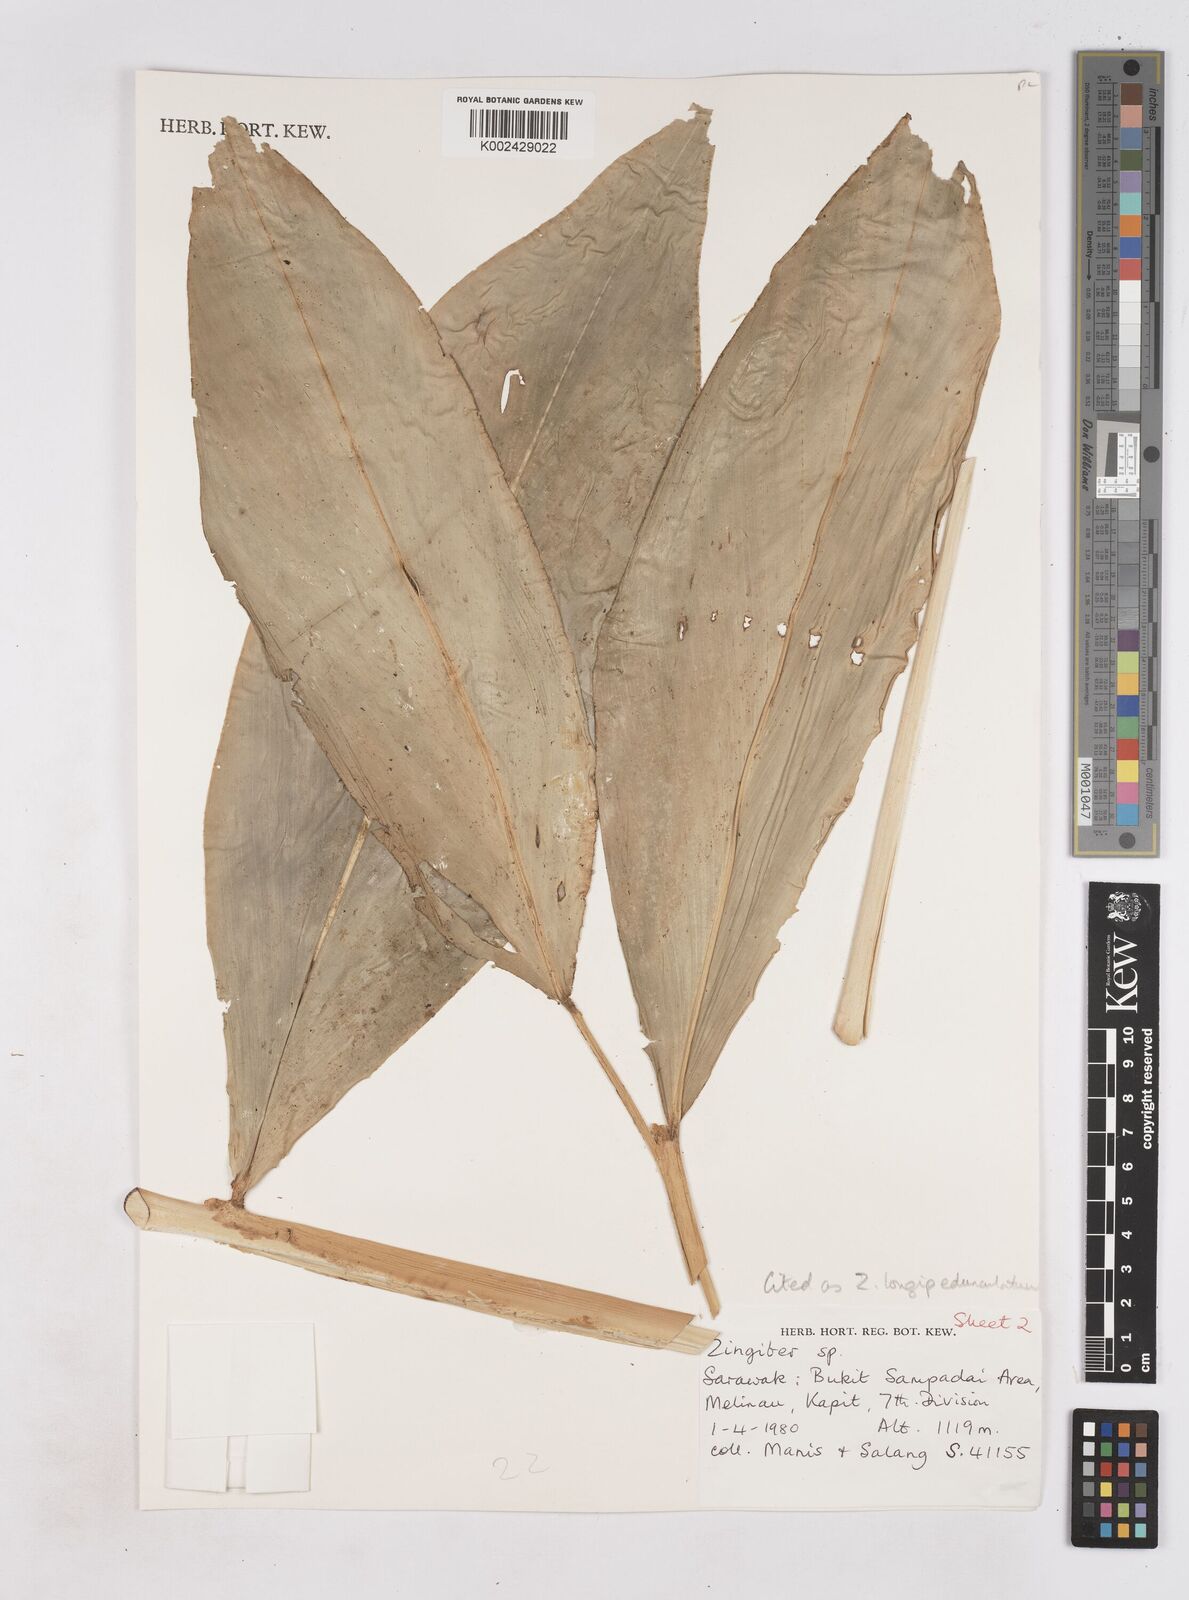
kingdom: Plantae
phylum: Tracheophyta
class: Liliopsida
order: Zingiberales
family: Zingiberaceae
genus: Zingiber
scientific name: Zingiber longipedunculatum
